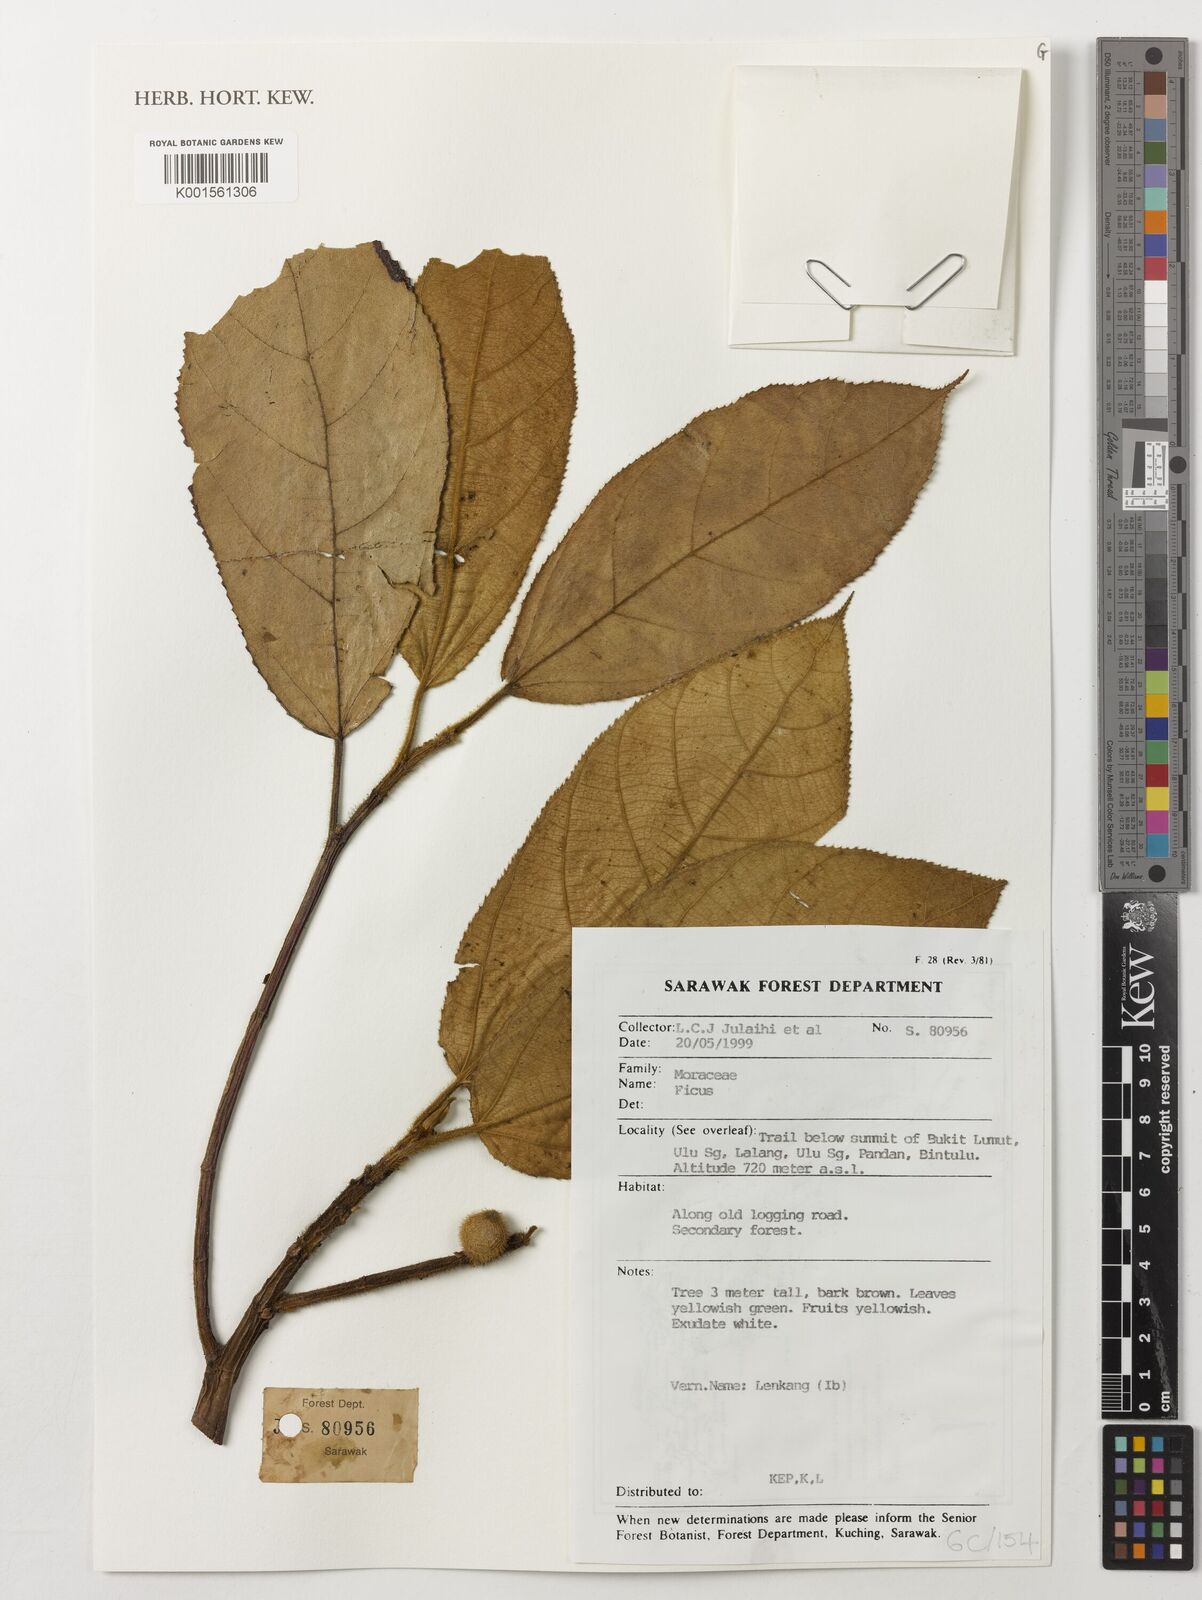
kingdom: Plantae
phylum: Tracheophyta
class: Magnoliopsida
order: Rosales
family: Moraceae
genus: Ficus
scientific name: Ficus
